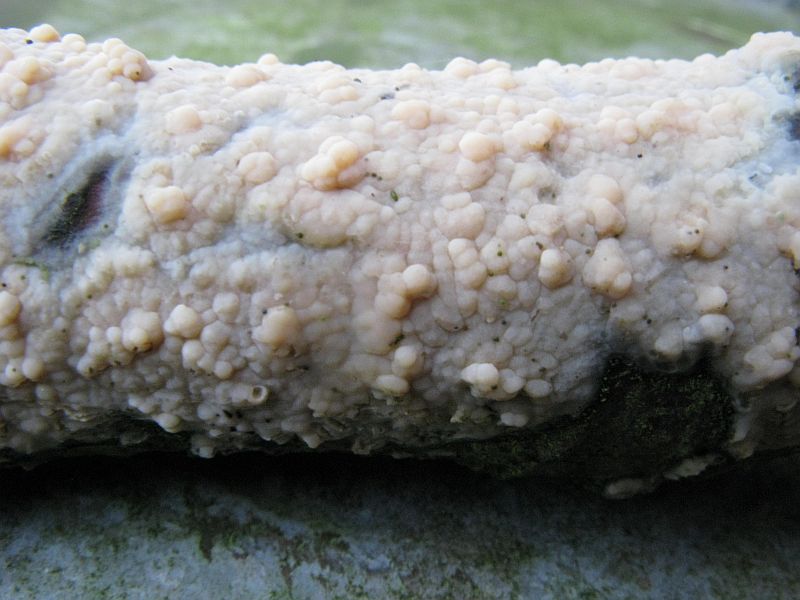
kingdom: Fungi
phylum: Basidiomycota
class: Agaricomycetes
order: Agaricales
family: Radulomycetaceae
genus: Radulomyces
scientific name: Radulomyces confluens
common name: glat naftalinskind
